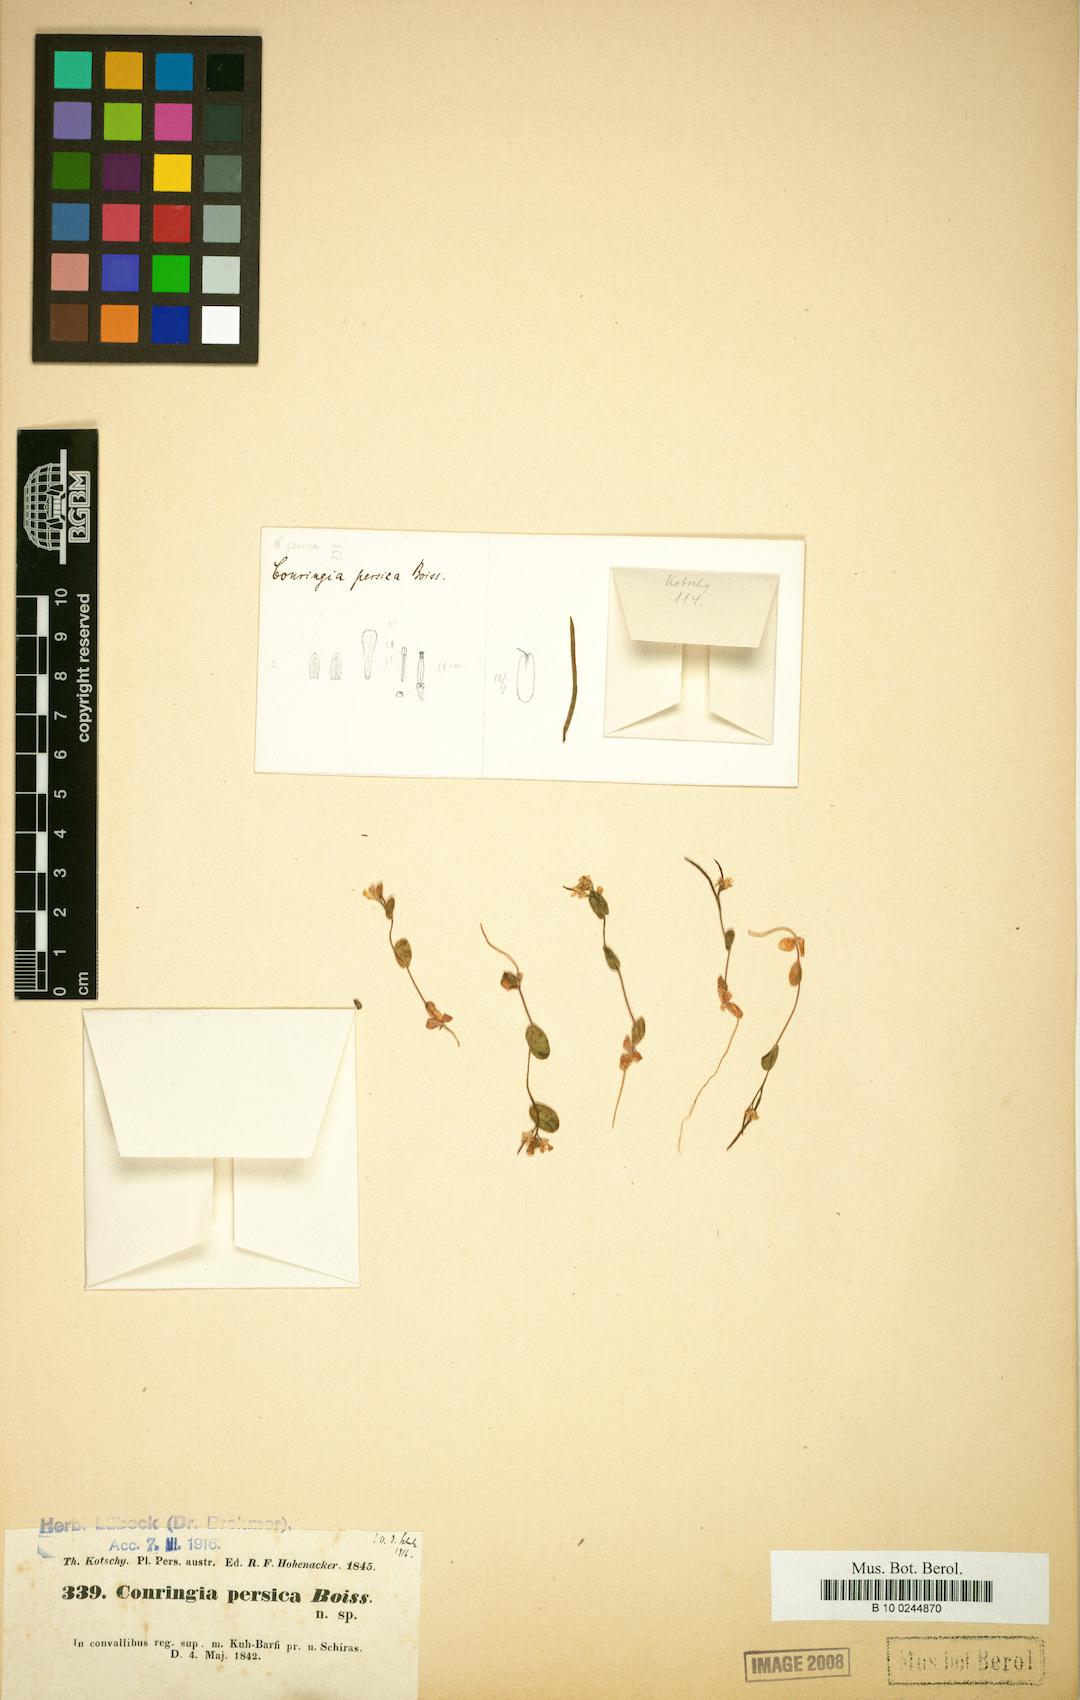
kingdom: Plantae
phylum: Tracheophyta
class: Magnoliopsida
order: Brassicales
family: Brassicaceae
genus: Conringia
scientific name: Conringia persica
